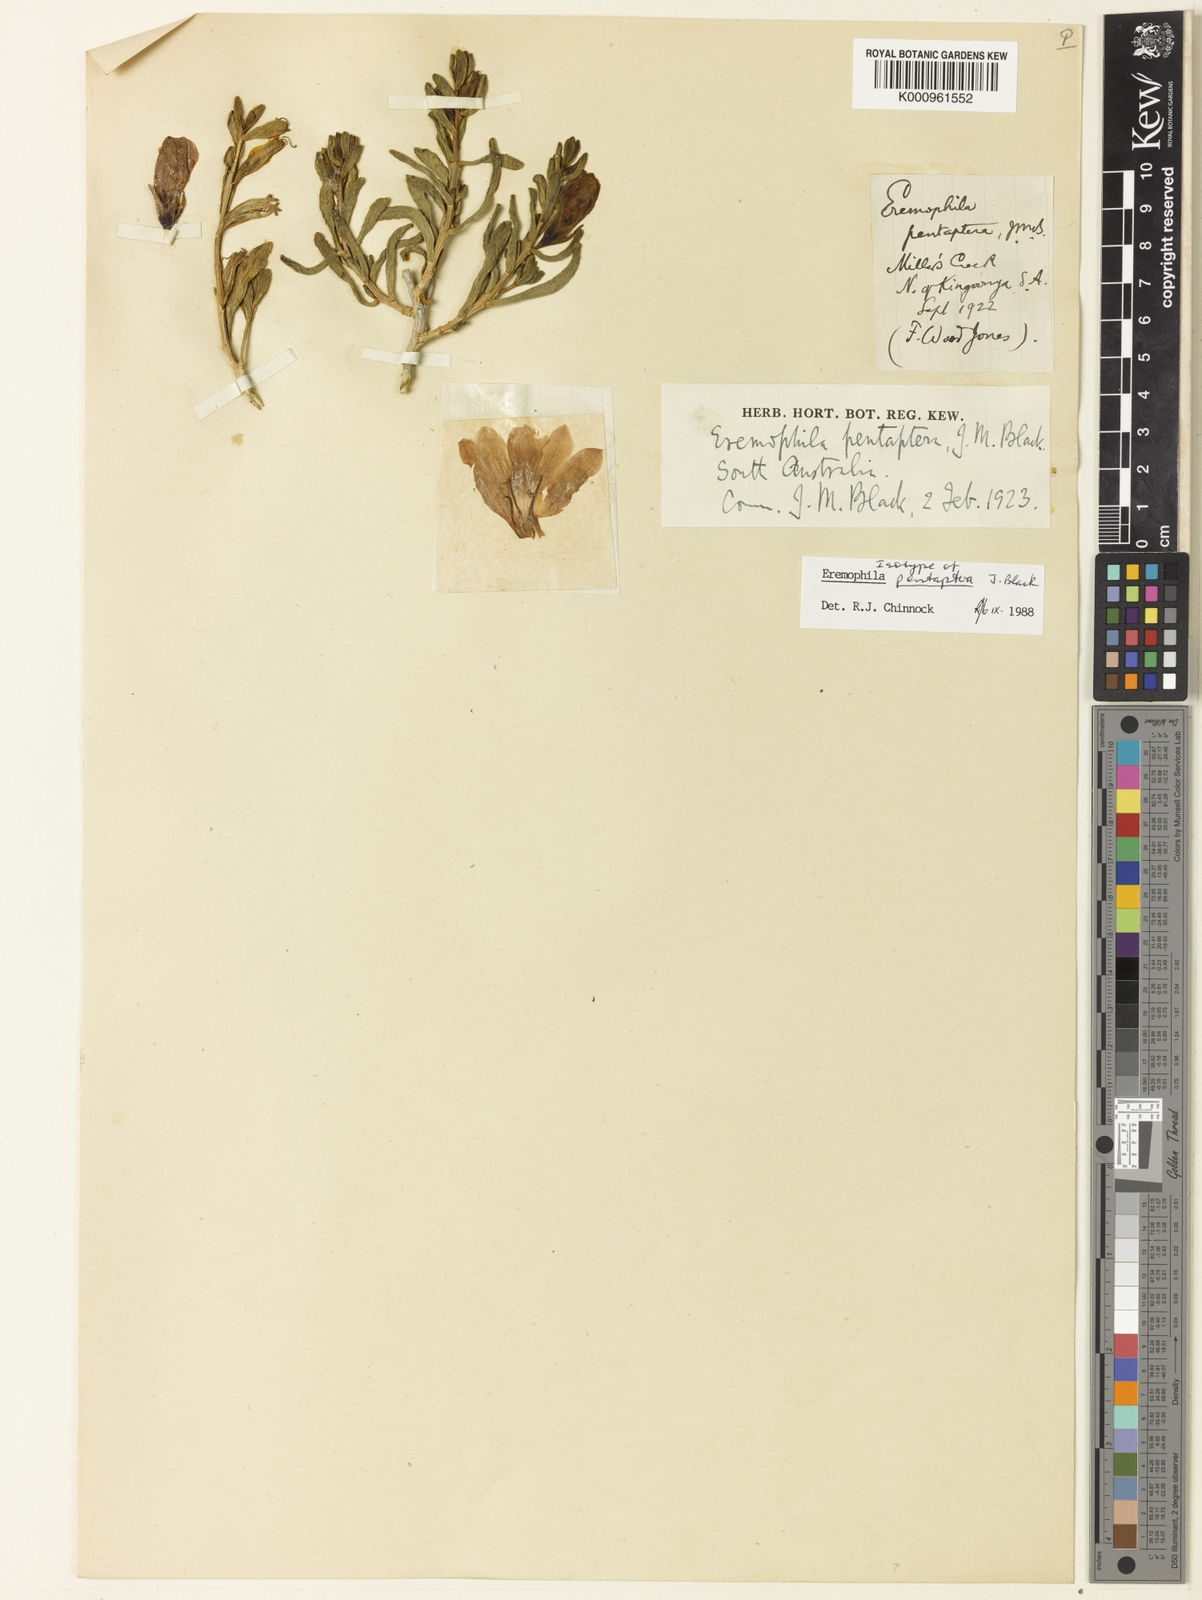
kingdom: Plantae
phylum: Tracheophyta
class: Magnoliopsida
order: Lamiales
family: Scrophulariaceae
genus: Eremophila
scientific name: Eremophila pentaptera
